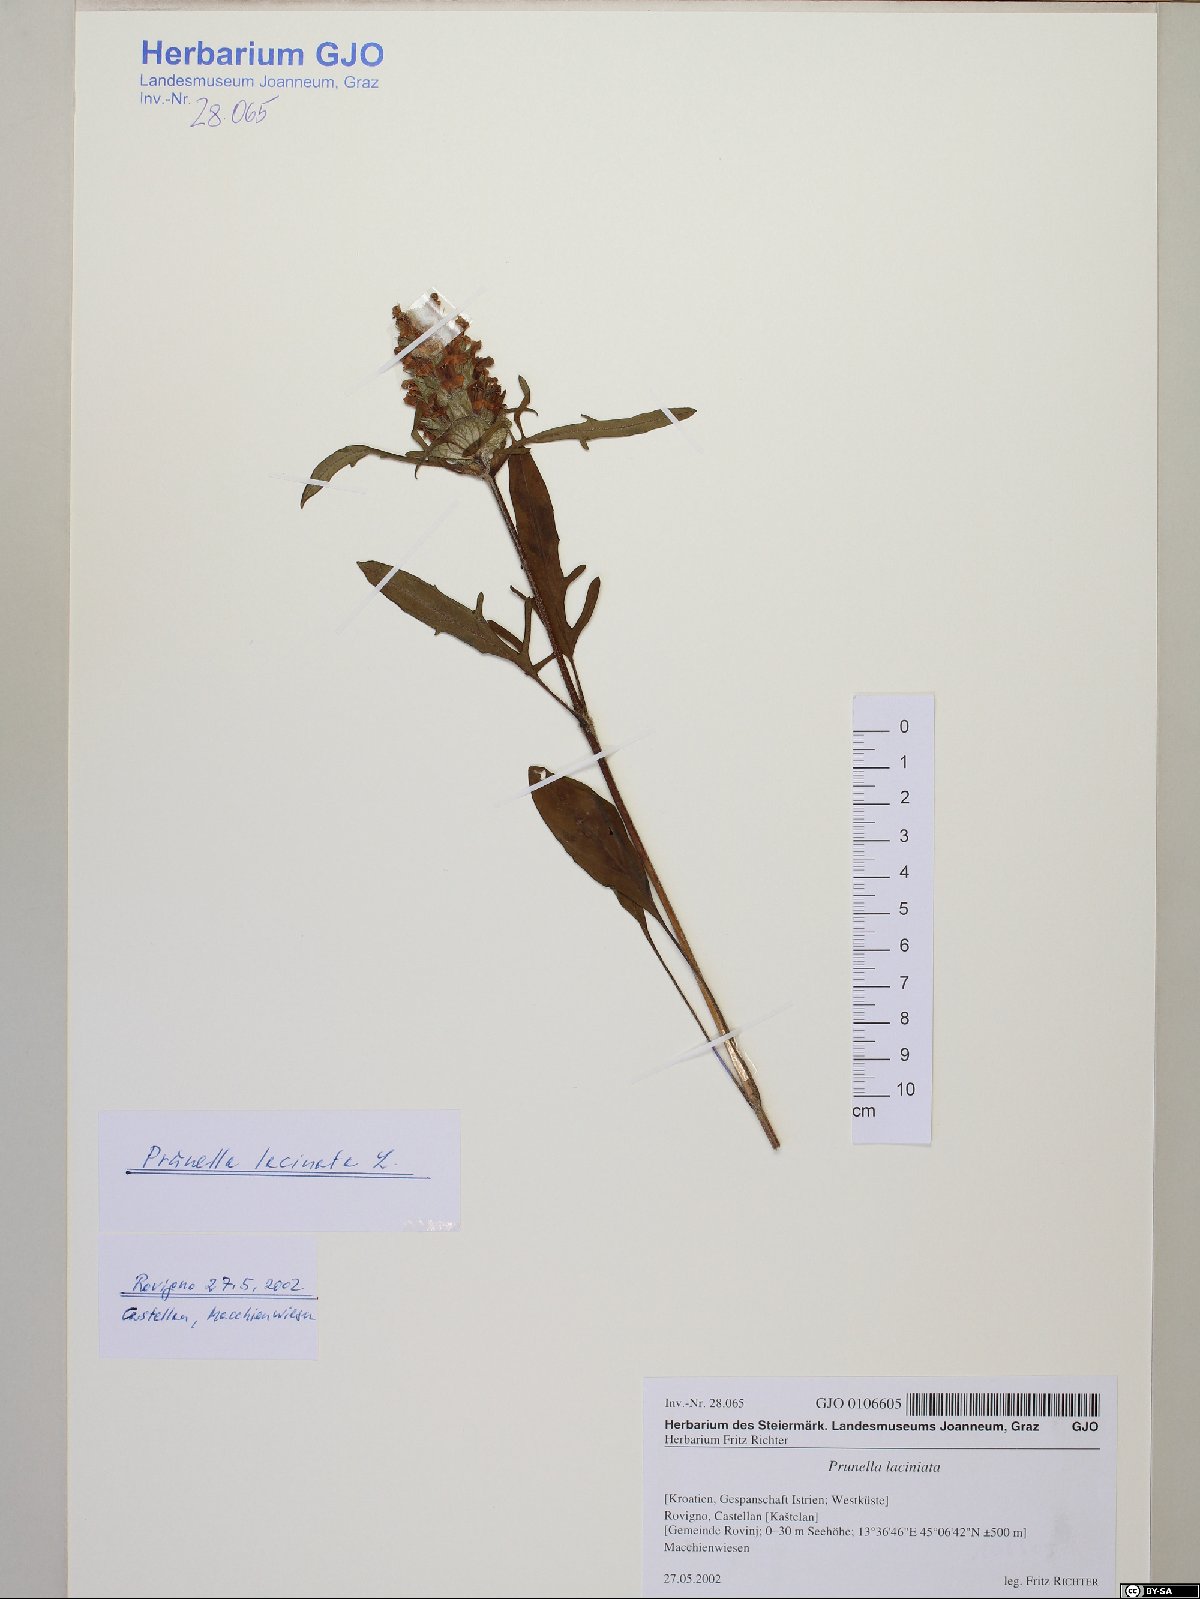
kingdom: Plantae
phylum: Tracheophyta
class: Magnoliopsida
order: Lamiales
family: Lamiaceae
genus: Prunella
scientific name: Prunella laciniata
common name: Cut-leaved selfheal
